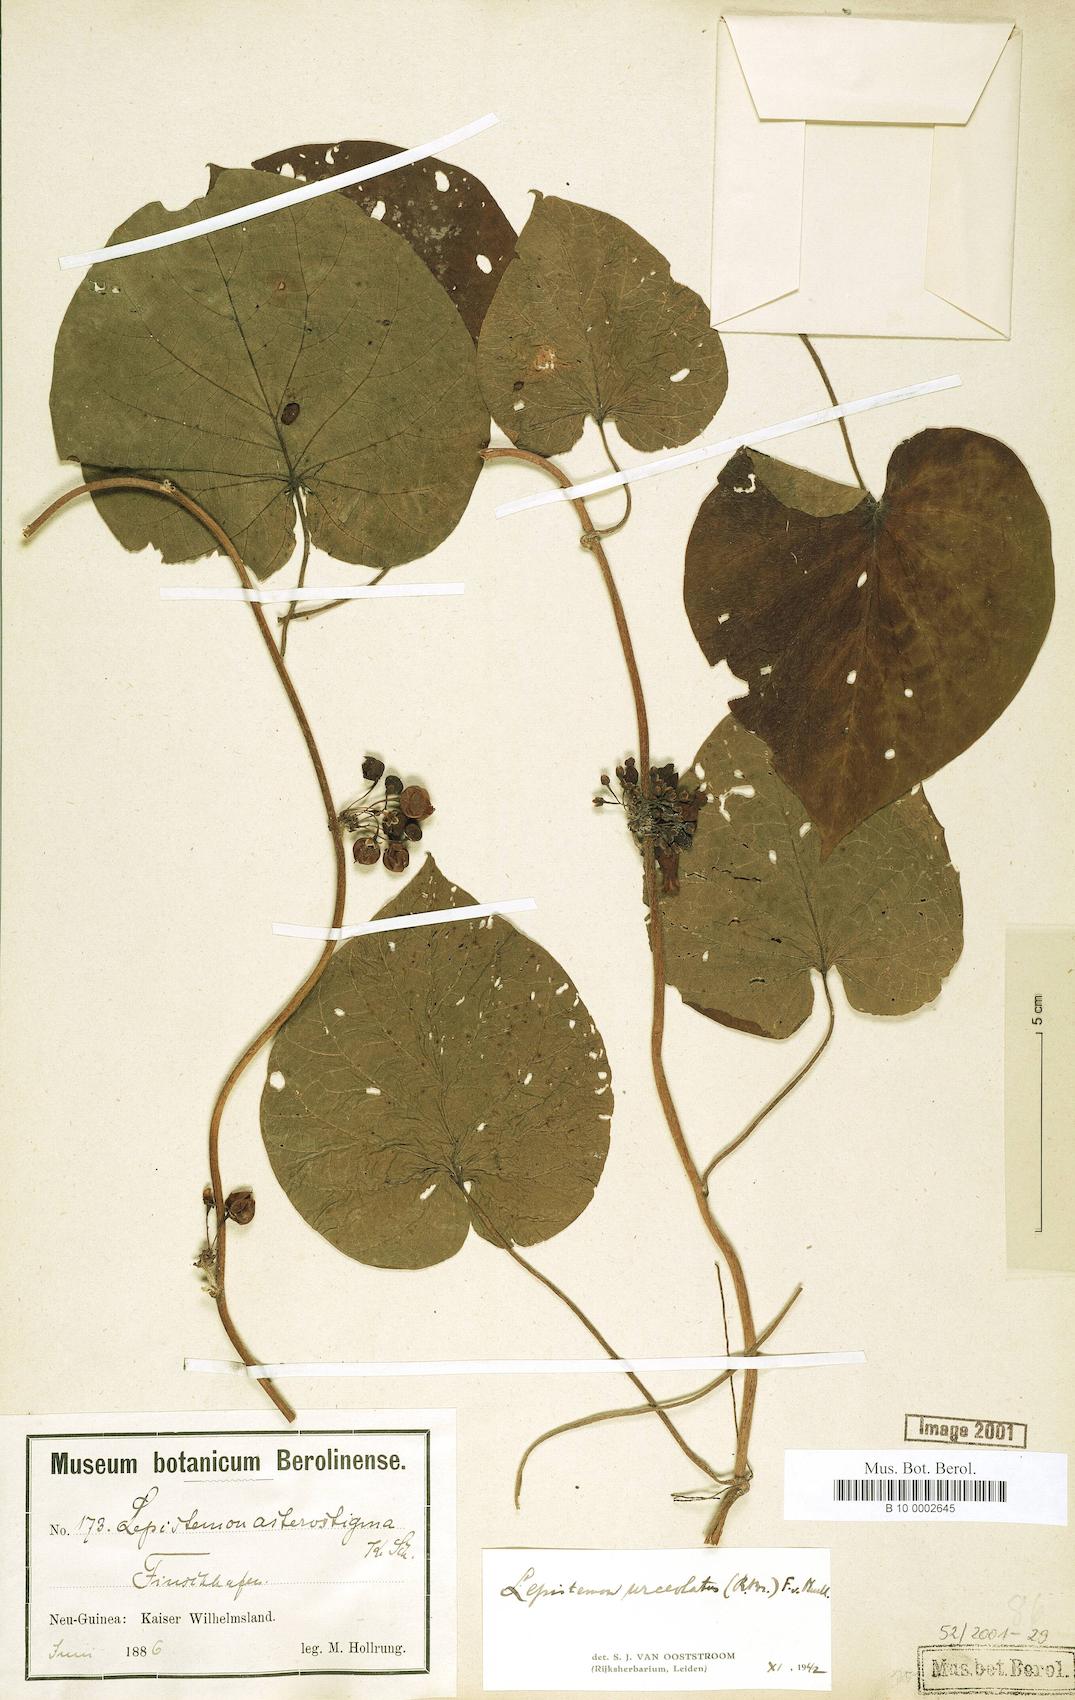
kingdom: Plantae
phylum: Tracheophyta
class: Magnoliopsida
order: Solanales
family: Convolvulaceae
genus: Lepistemon
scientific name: Lepistemon urceolatus
